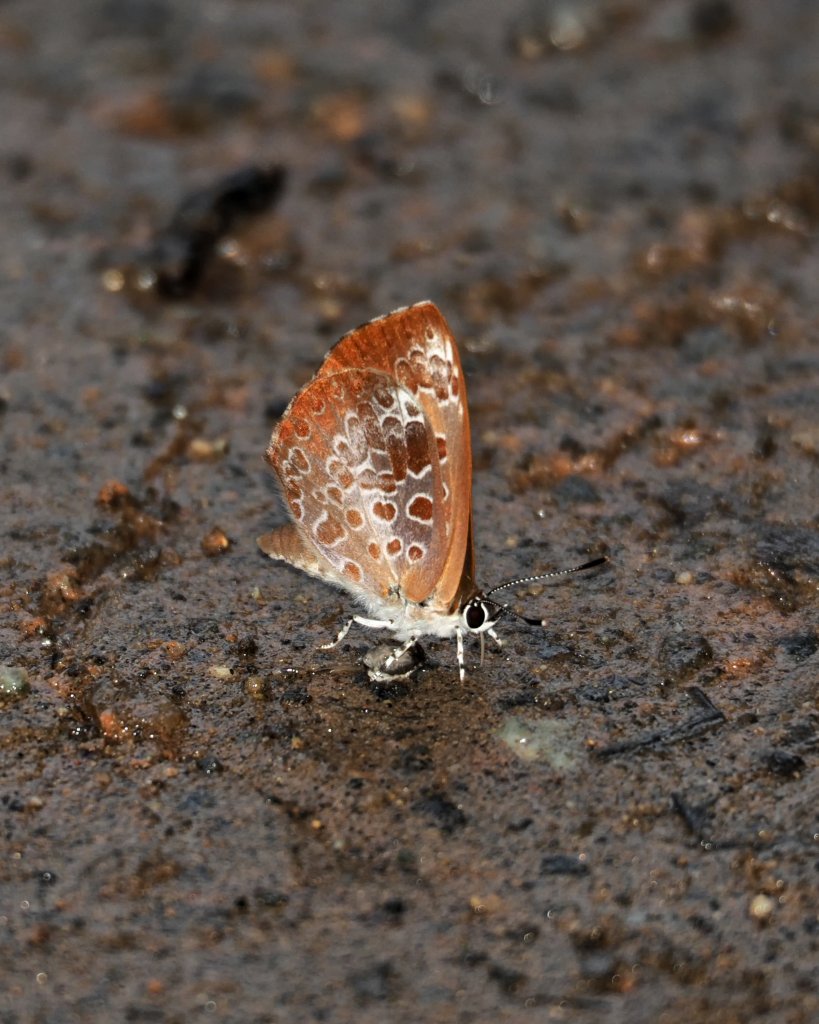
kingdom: Animalia
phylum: Arthropoda
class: Insecta
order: Lepidoptera
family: Lycaenidae
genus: Feniseca
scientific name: Feniseca tarquinius
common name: Harvester
